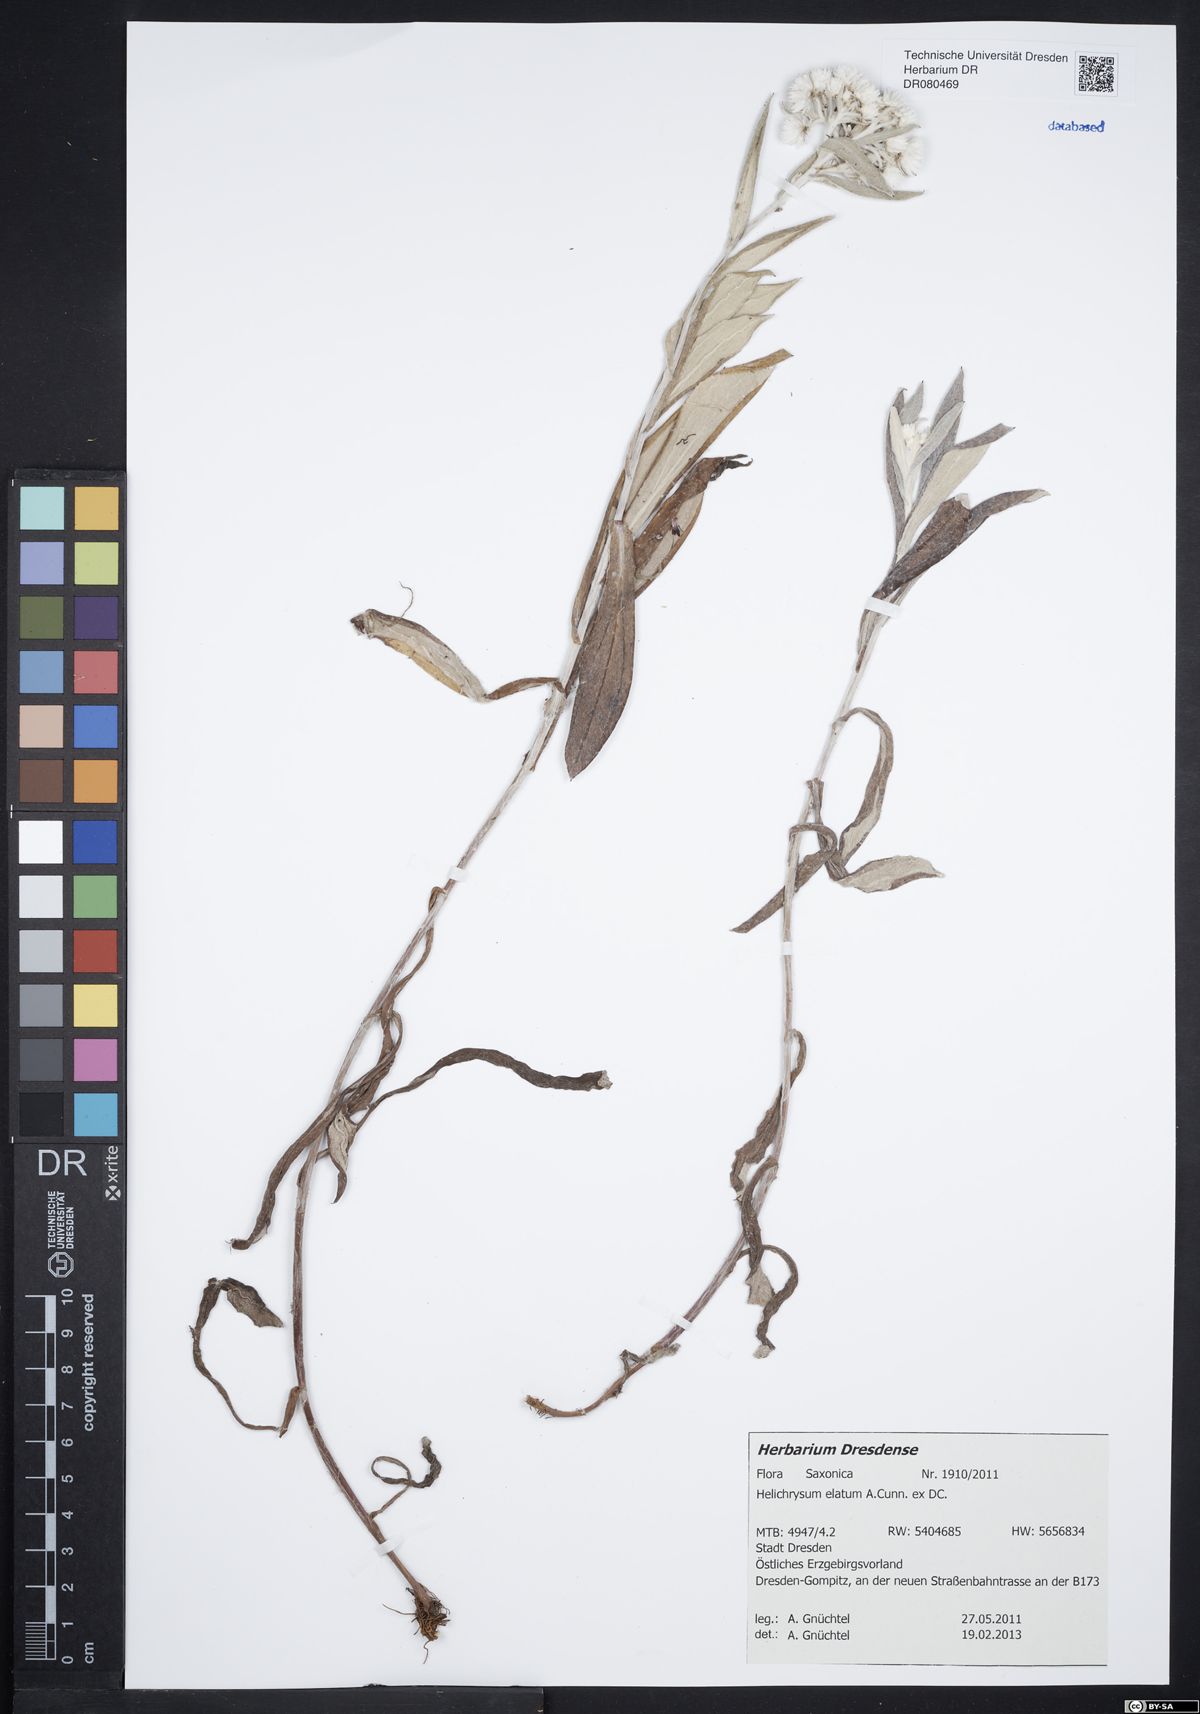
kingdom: Plantae
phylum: Tracheophyta
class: Magnoliopsida
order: Asterales
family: Asteraceae
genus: Leucozoma
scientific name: Leucozoma elatum
